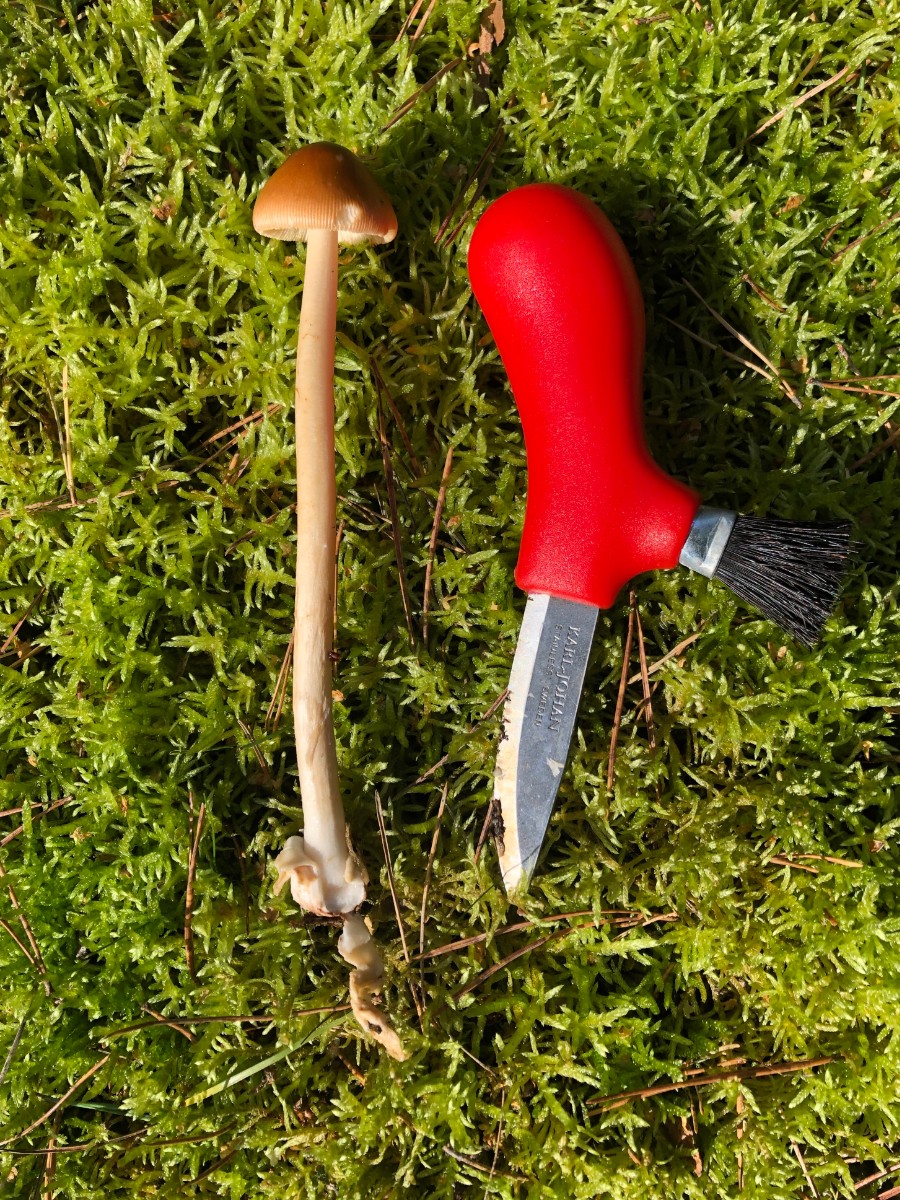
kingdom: Fungi
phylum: Basidiomycota
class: Agaricomycetes
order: Agaricales
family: Amanitaceae
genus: Amanita
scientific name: Amanita fulva
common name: brun kam-fluesvamp
